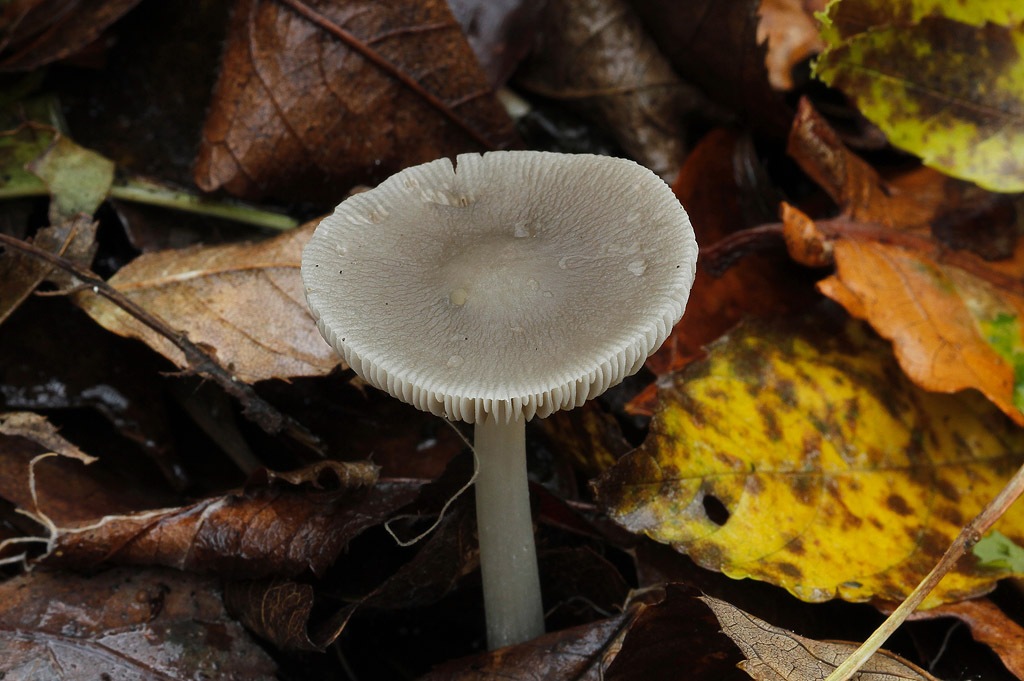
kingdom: Fungi
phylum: Basidiomycota
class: Agaricomycetes
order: Agaricales
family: Pluteaceae
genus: Pluteus
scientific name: Pluteus
